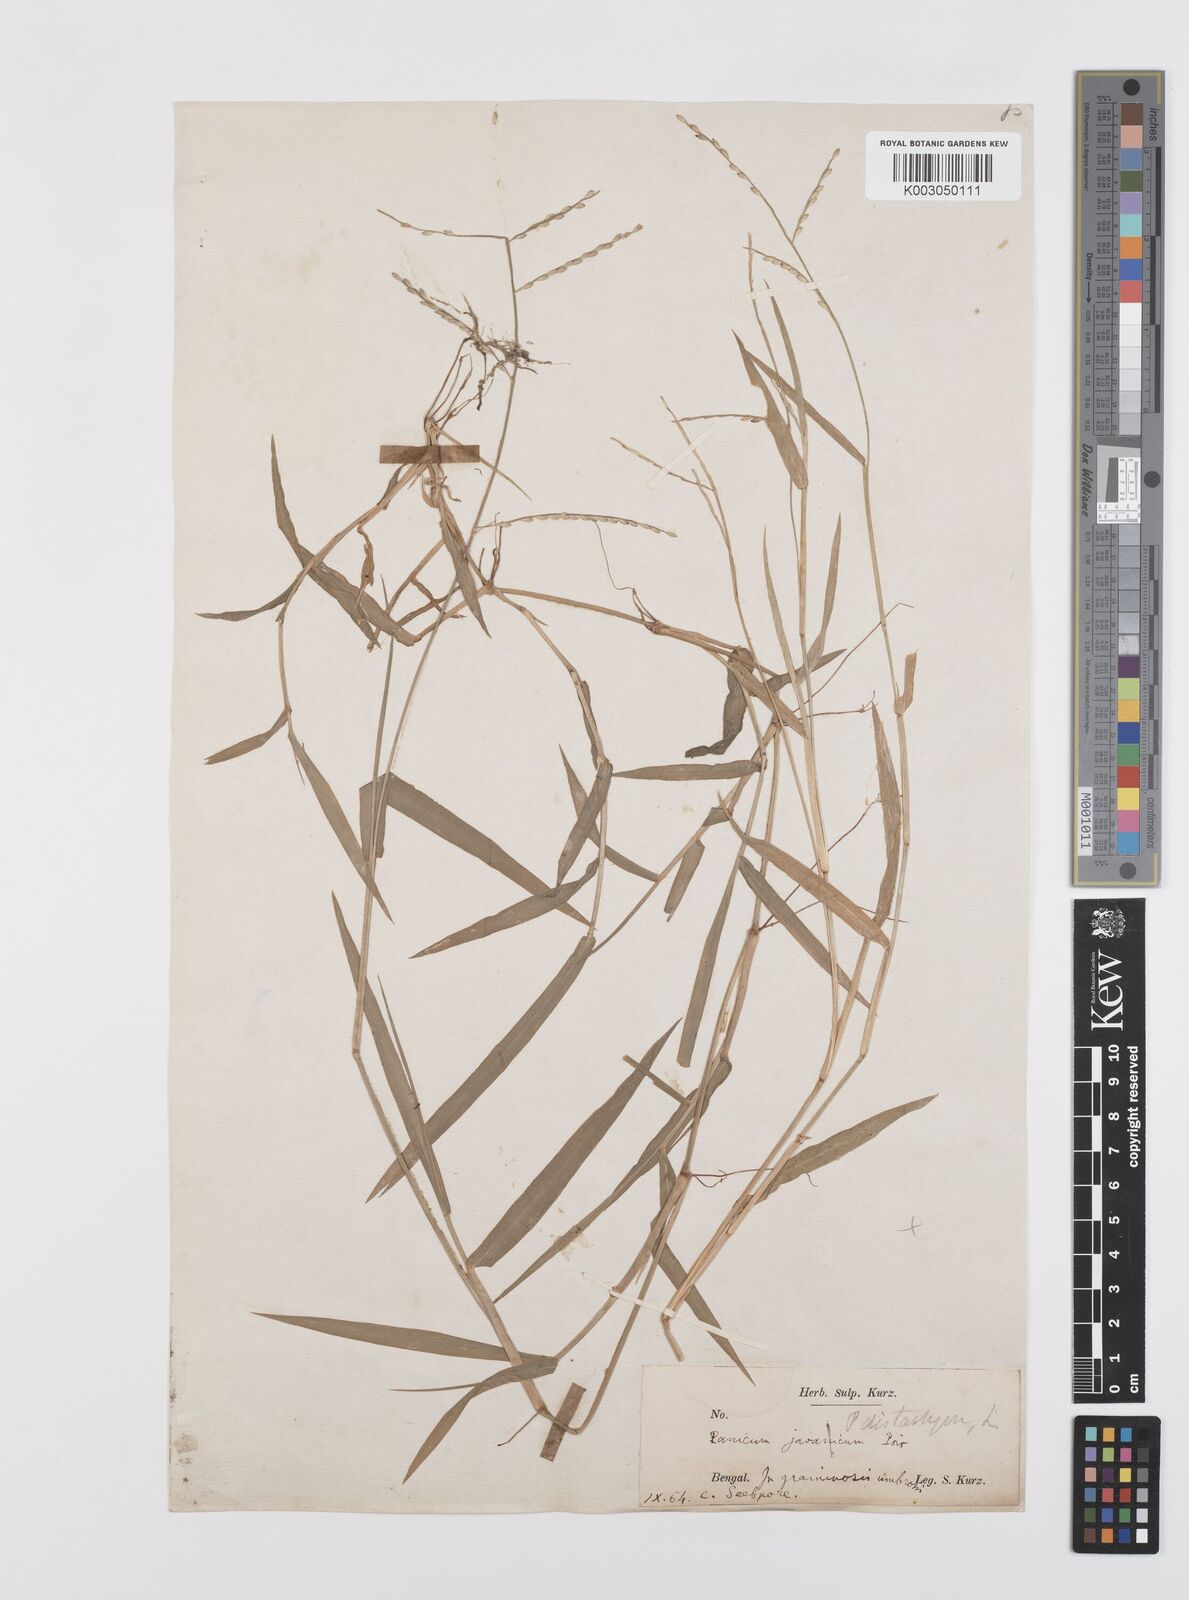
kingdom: Plantae
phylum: Tracheophyta
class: Liliopsida
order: Poales
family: Poaceae
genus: Urochloa
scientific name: Urochloa subquadripara
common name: Armgrass millet
